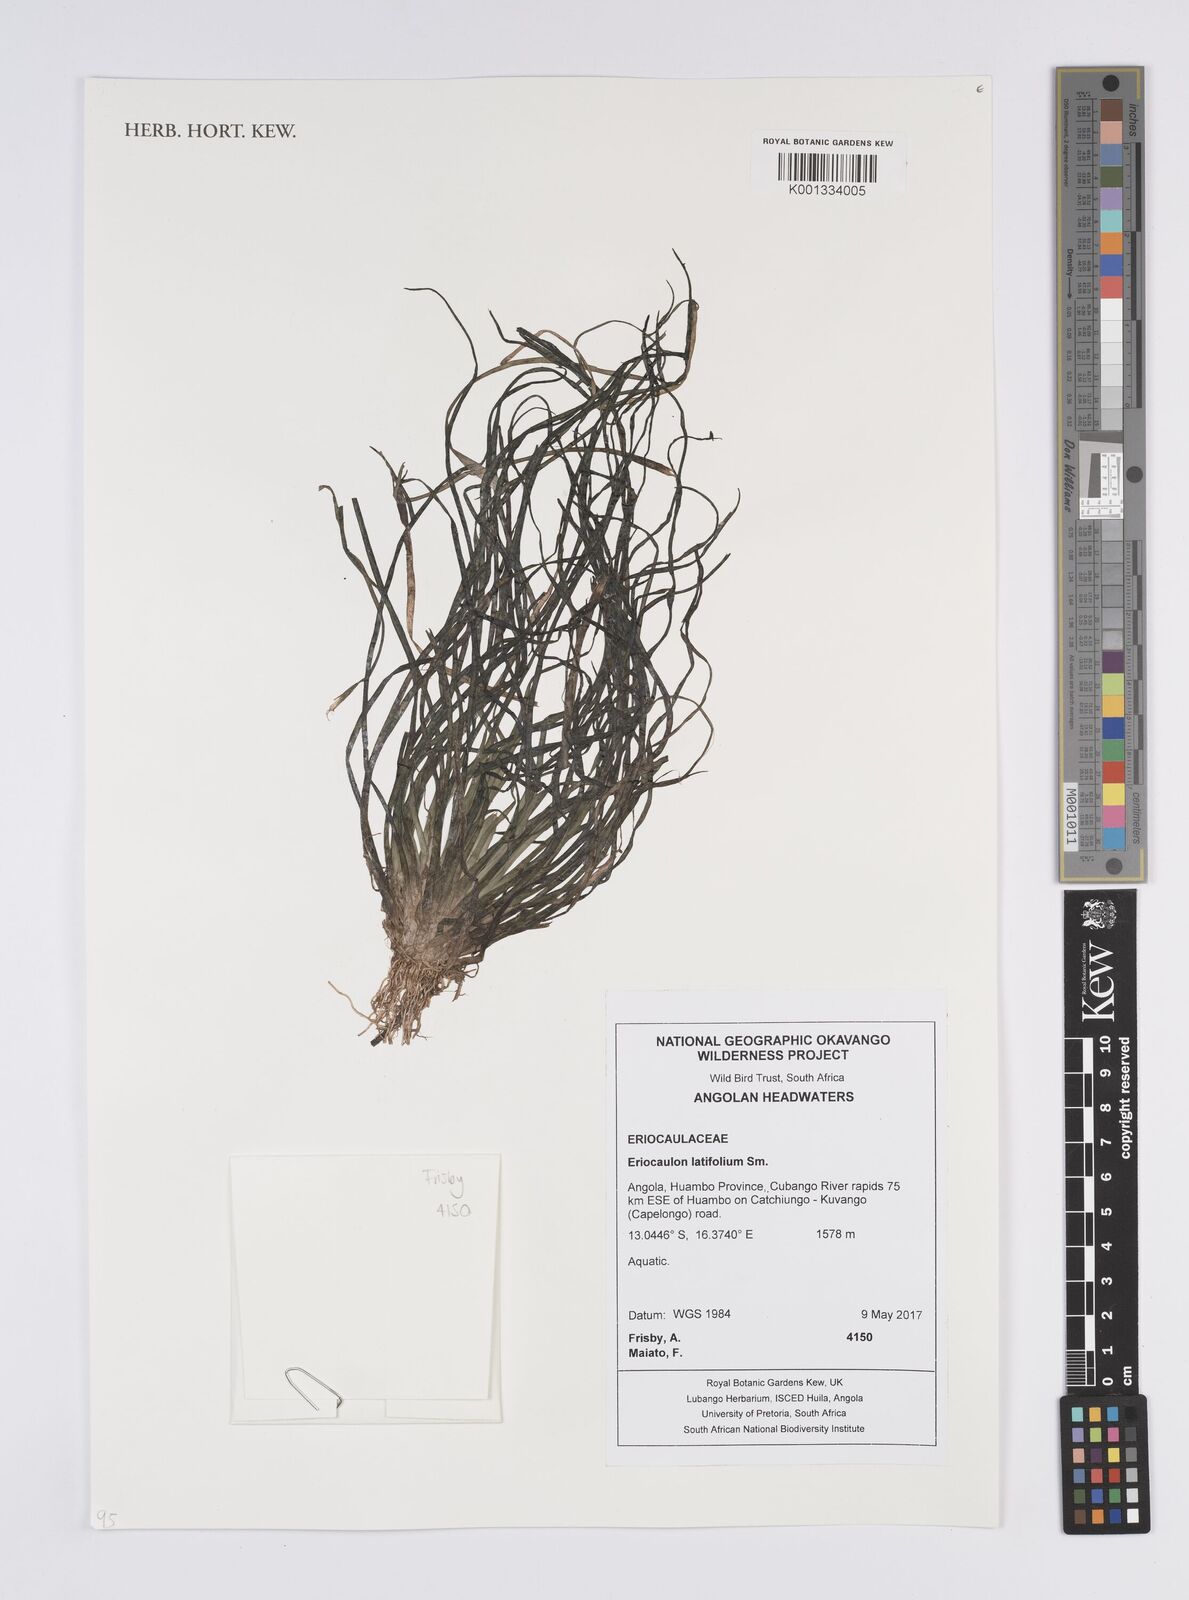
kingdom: Plantae
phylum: Tracheophyta
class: Liliopsida
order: Poales
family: Eriocaulaceae
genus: Eriocaulon
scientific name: Eriocaulon latifolium
